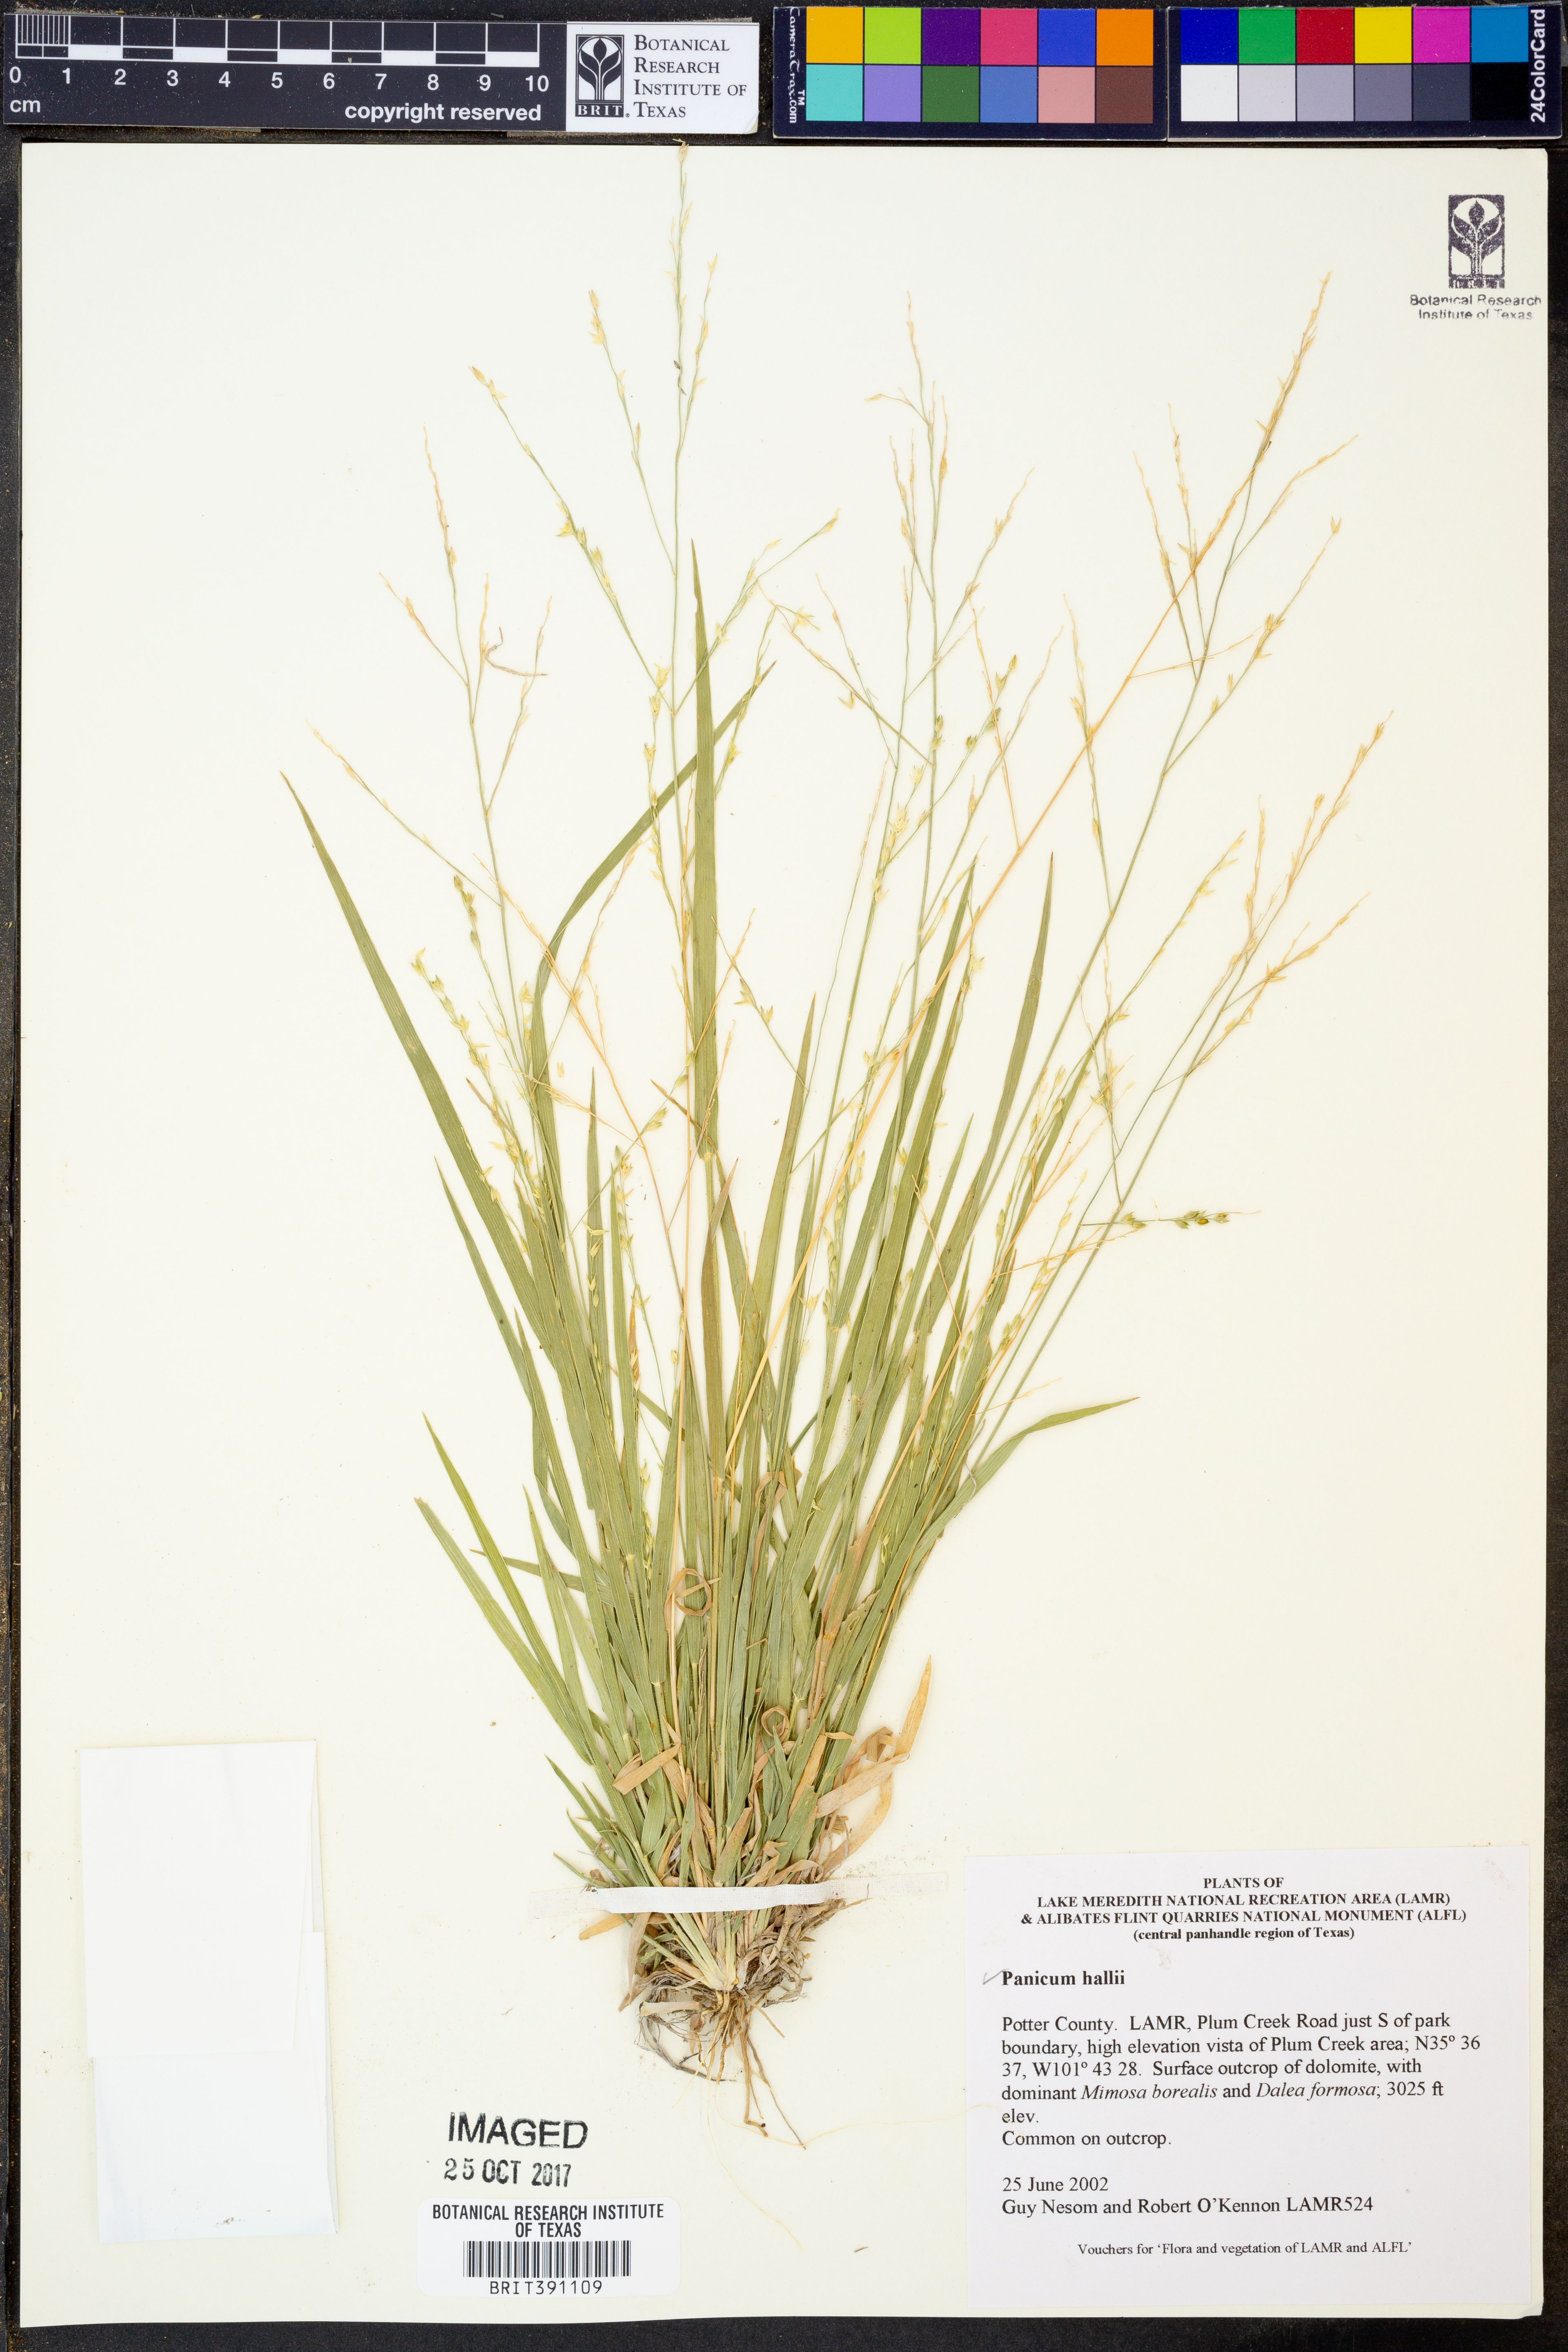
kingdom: Plantae
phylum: Tracheophyta
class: Liliopsida
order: Poales
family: Poaceae
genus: Panicum
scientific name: Panicum hallii
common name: Hall's witchgrass
